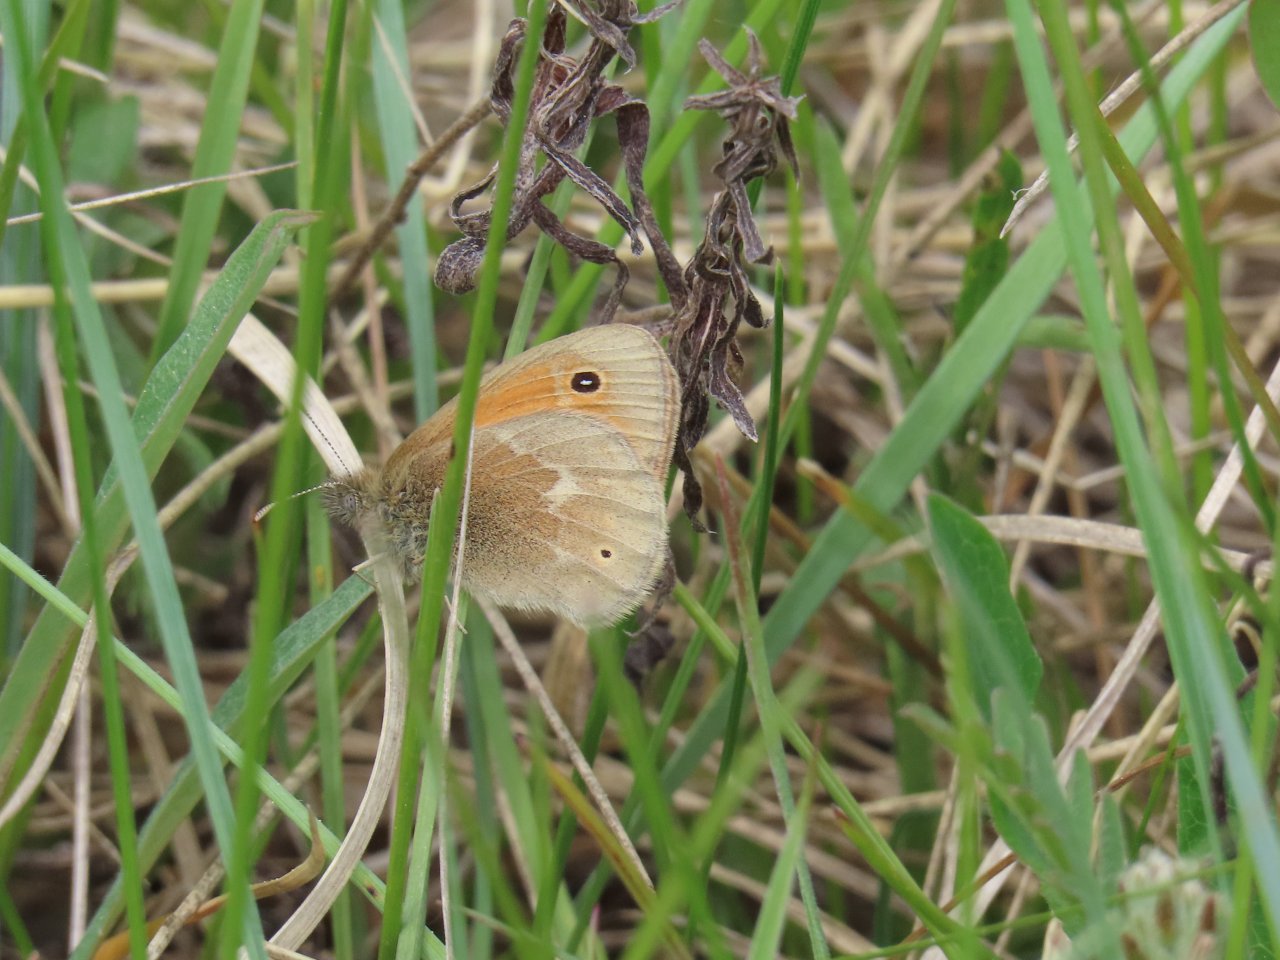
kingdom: Animalia
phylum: Arthropoda
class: Insecta
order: Lepidoptera
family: Nymphalidae
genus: Coenonympha
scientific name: Coenonympha tullia
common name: Large Heath
